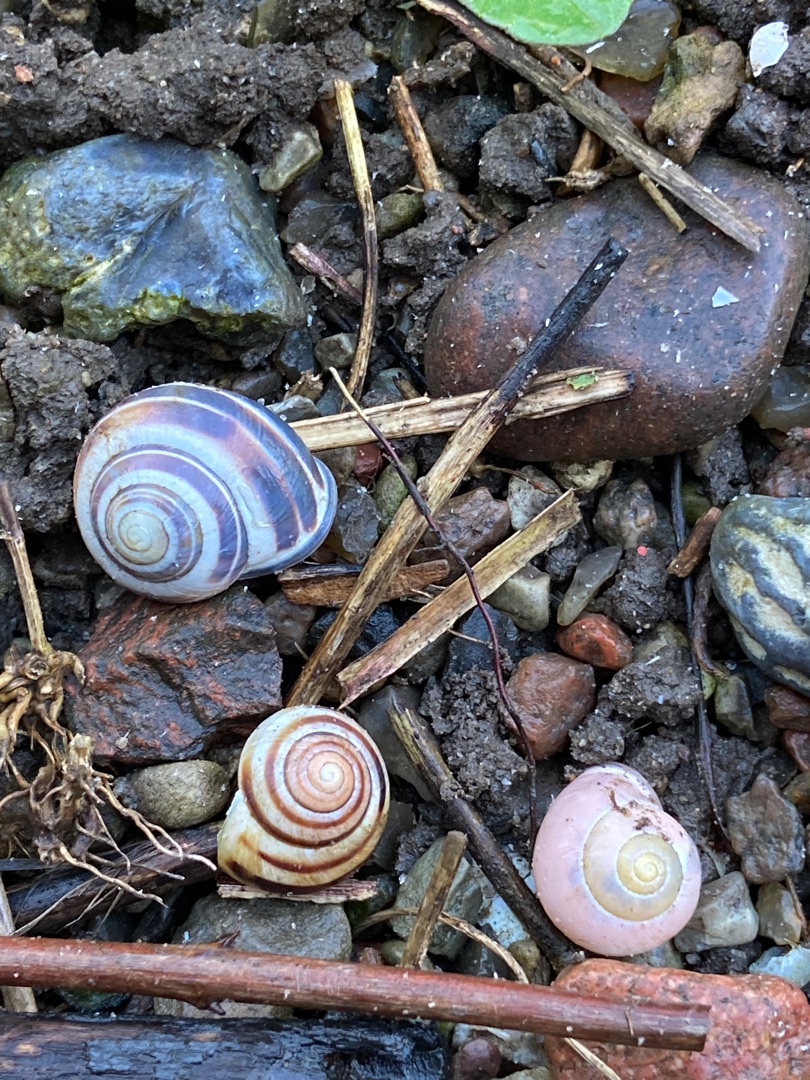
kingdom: Animalia
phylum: Mollusca
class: Gastropoda
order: Stylommatophora
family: Helicidae
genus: Cepaea
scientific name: Cepaea nemoralis
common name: Lundsnegl
